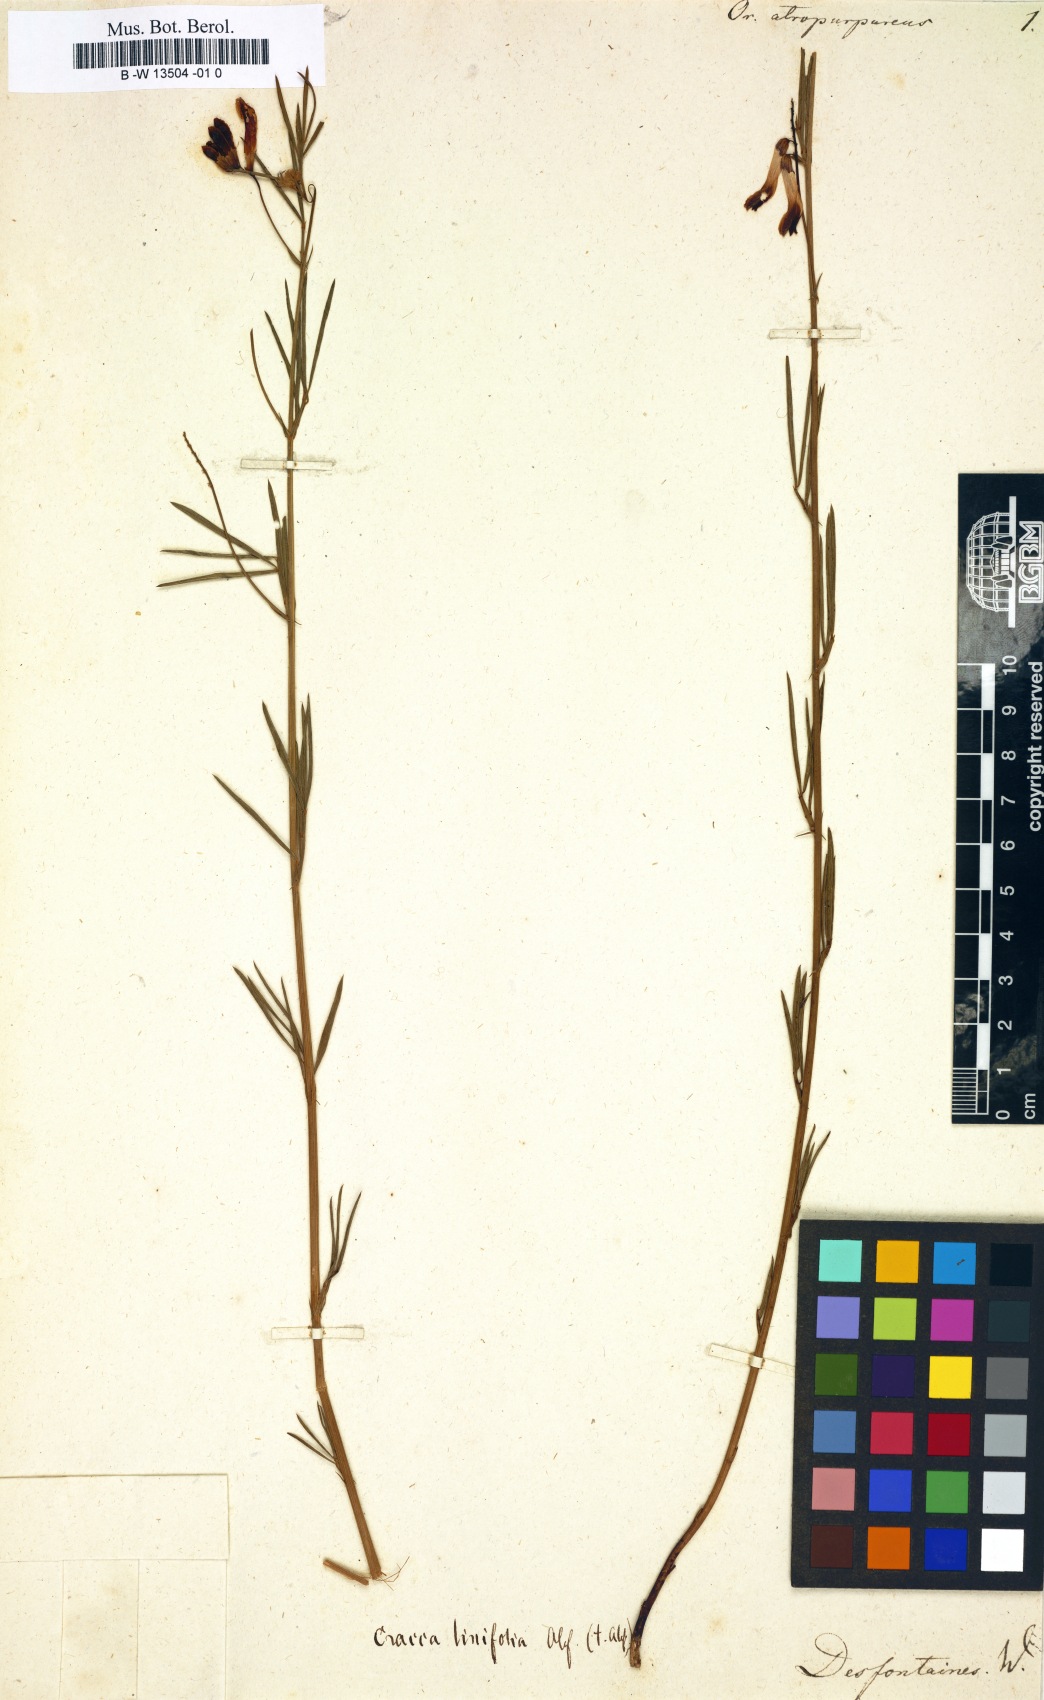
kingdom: Plantae
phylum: Tracheophyta
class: Magnoliopsida
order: Fabales
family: Fabaceae
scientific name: Fabaceae
